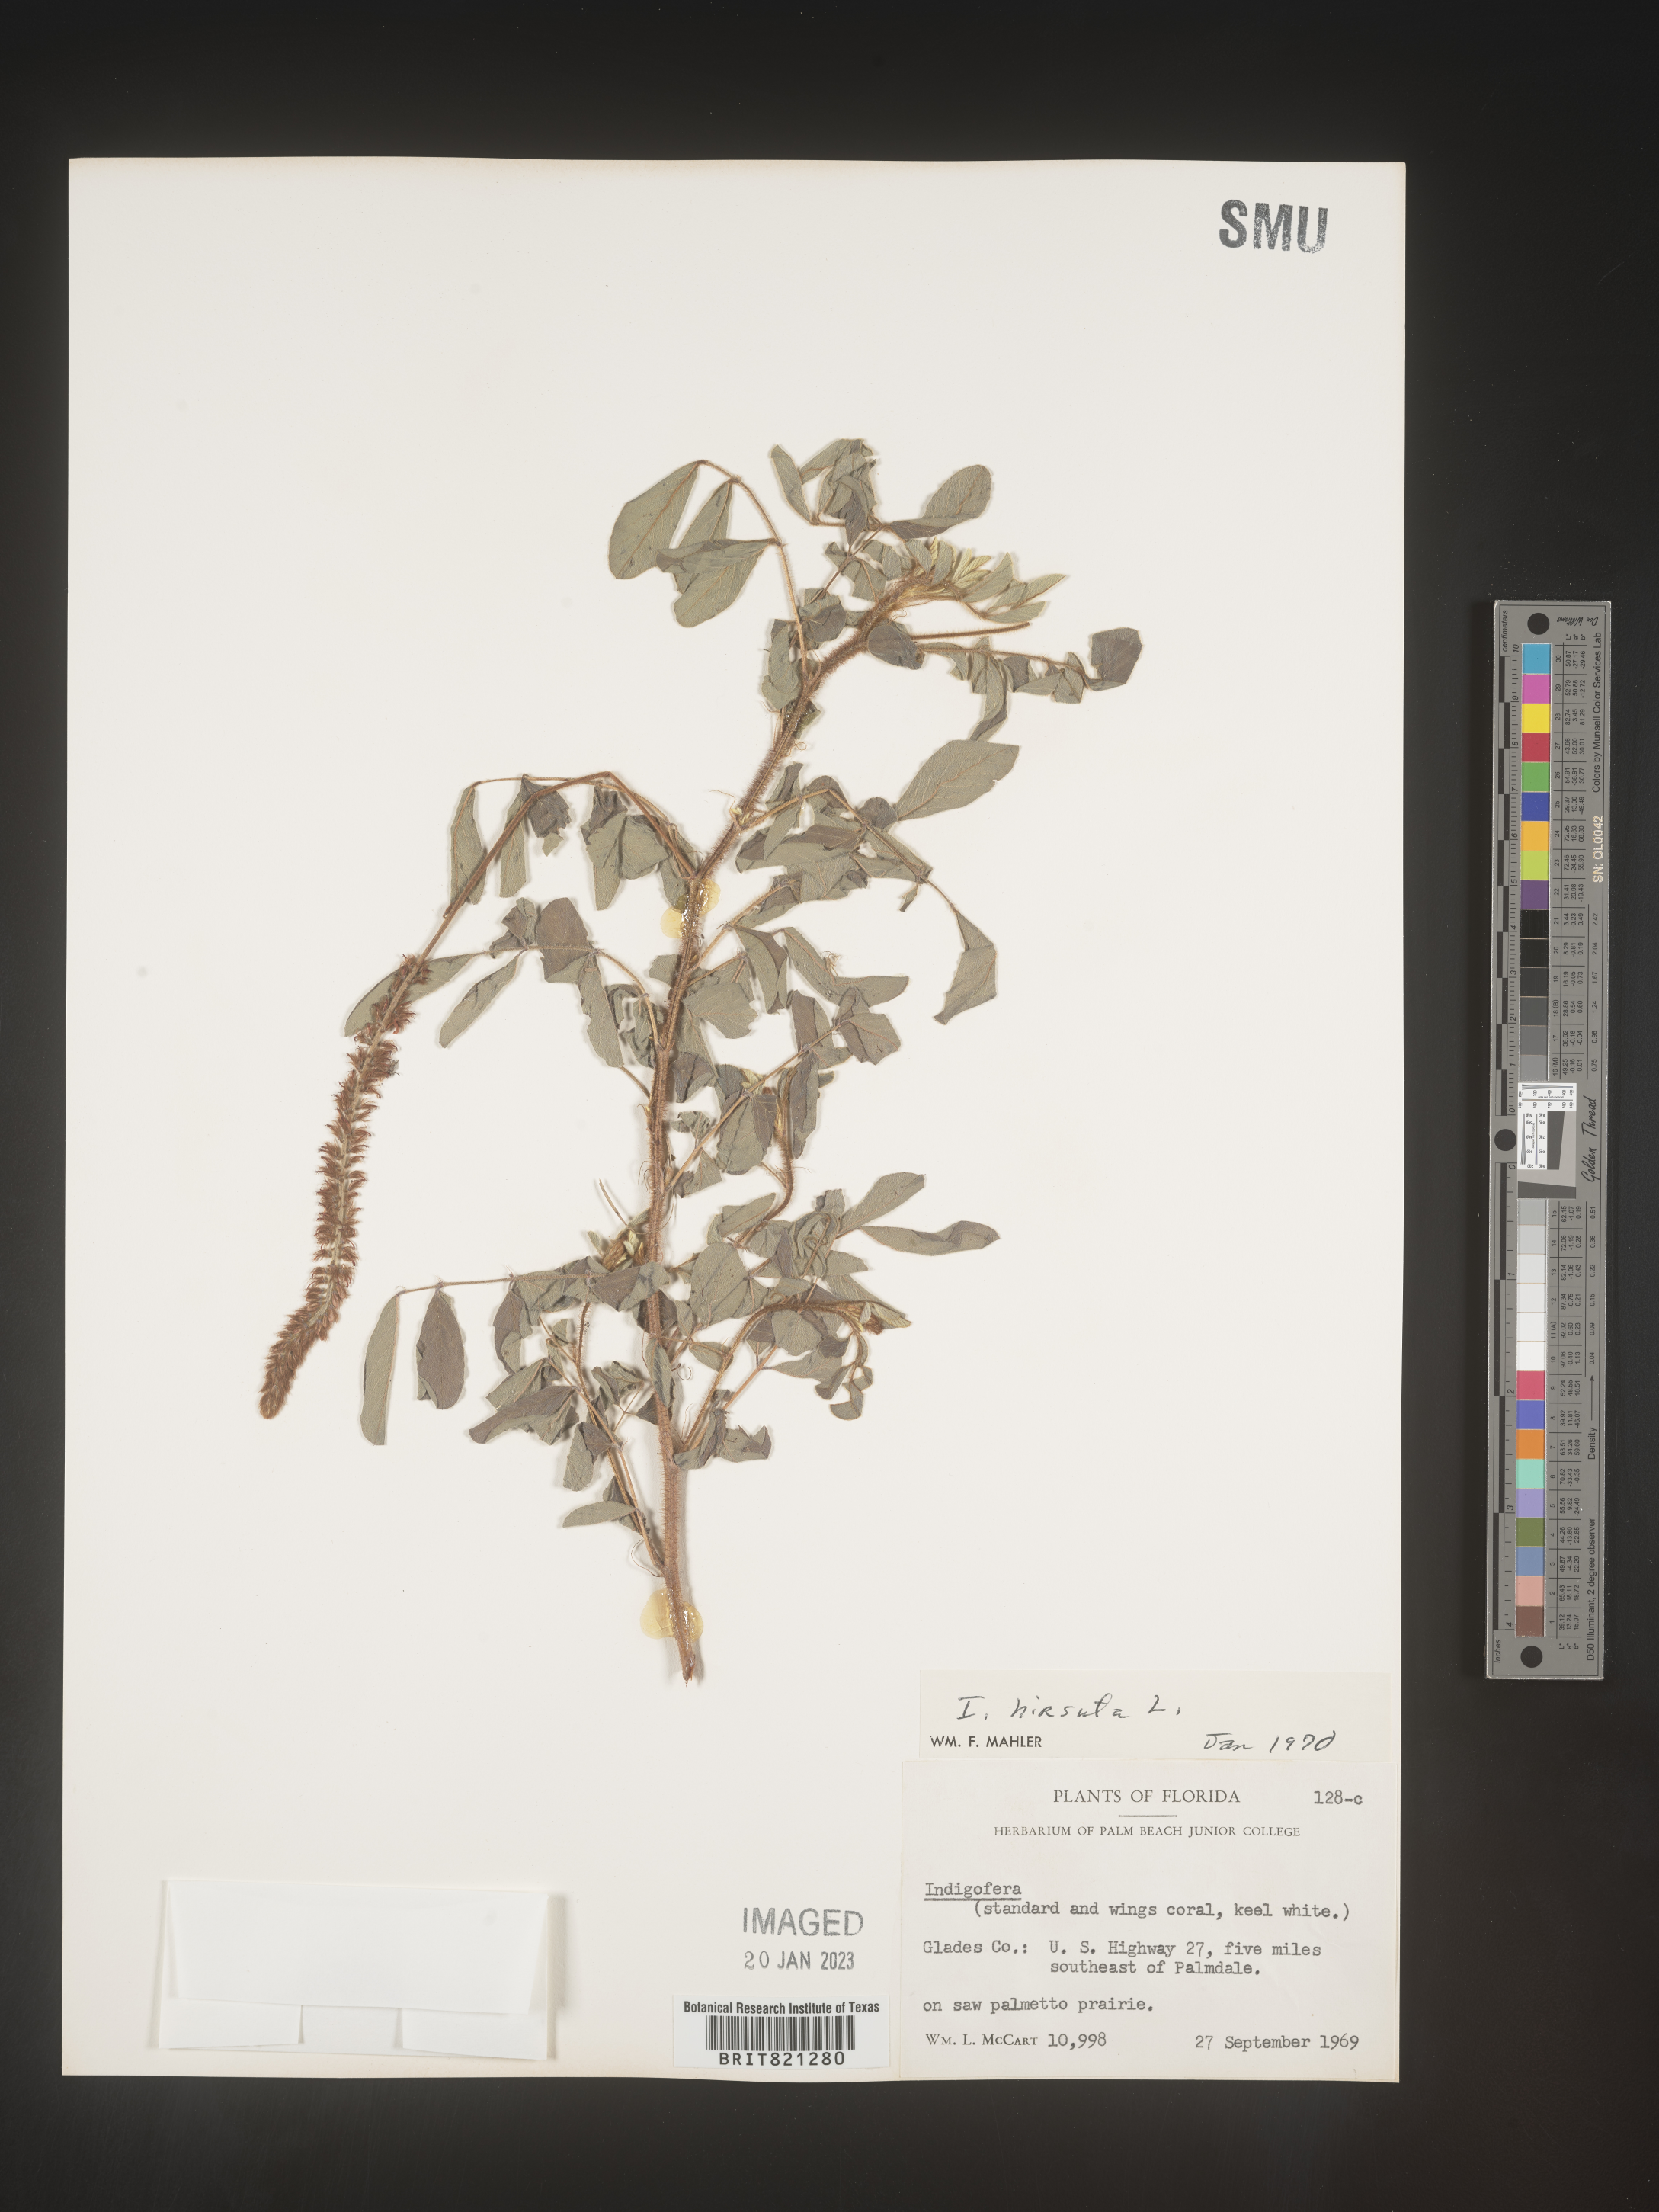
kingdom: Plantae
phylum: Tracheophyta
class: Magnoliopsida
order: Fabales
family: Fabaceae
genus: Indigofera
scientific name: Indigofera
